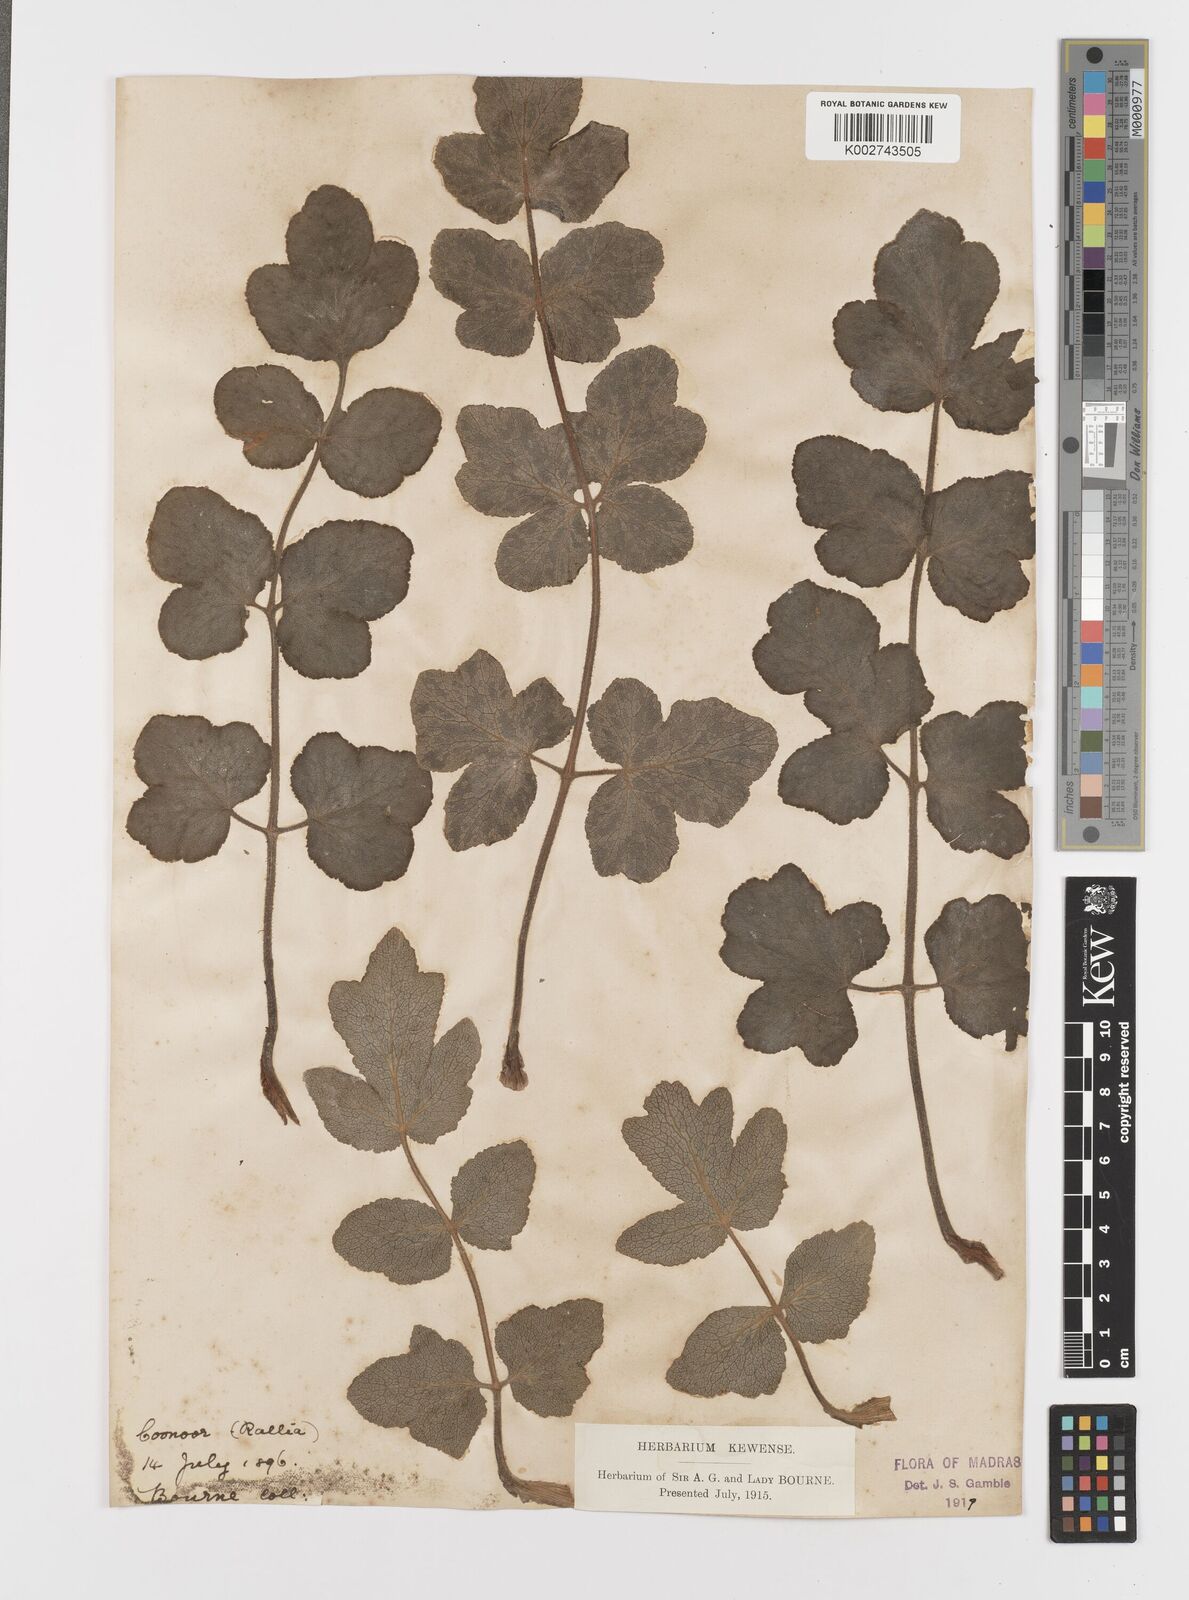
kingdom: Plantae
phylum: Tracheophyta
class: Magnoliopsida
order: Apiales
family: Apiaceae
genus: Tetrataenium
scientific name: Tetrataenium rigens
